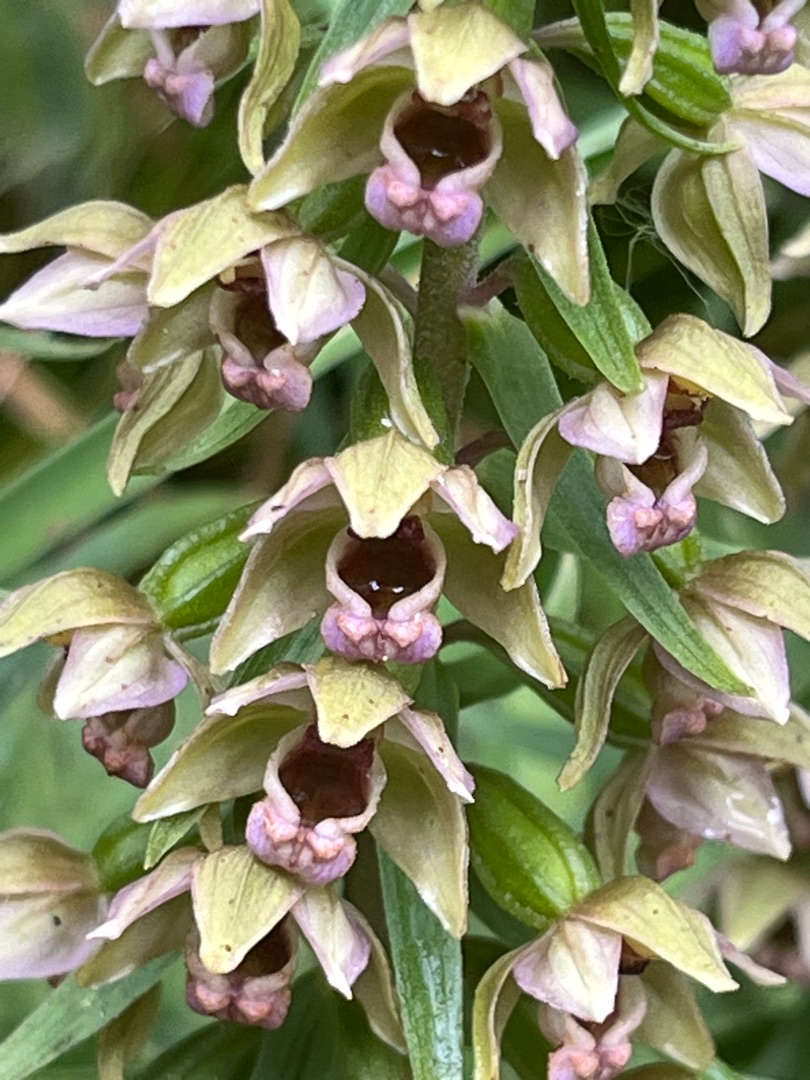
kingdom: Plantae
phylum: Tracheophyta
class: Liliopsida
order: Asparagales
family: Orchidaceae
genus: Epipactis
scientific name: Epipactis helleborine
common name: Skov-hullæbe (underart)
